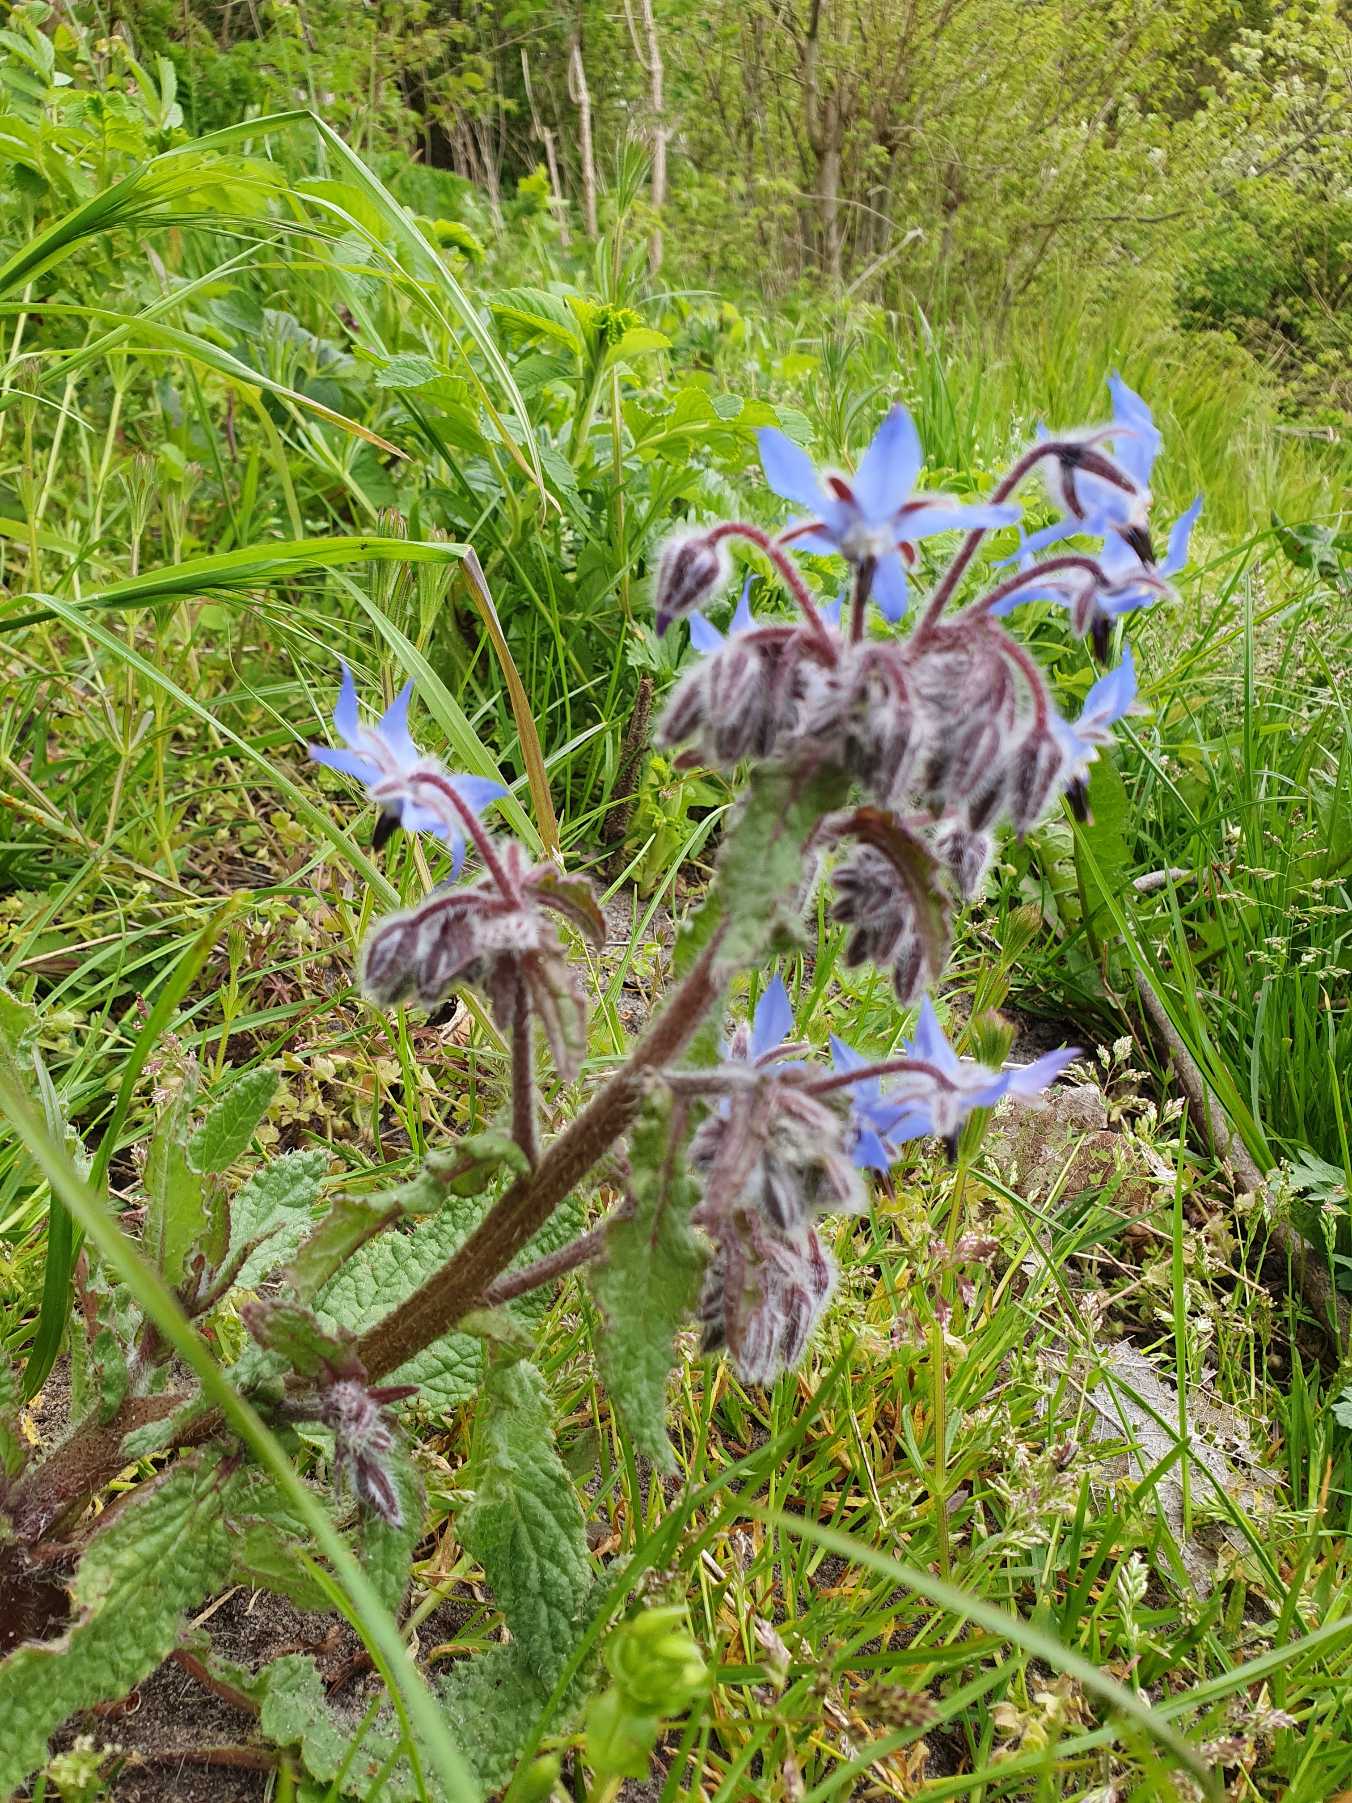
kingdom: Plantae
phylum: Tracheophyta
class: Magnoliopsida
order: Boraginales
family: Boraginaceae
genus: Borago
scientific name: Borago officinalis
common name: Hjulkrone
